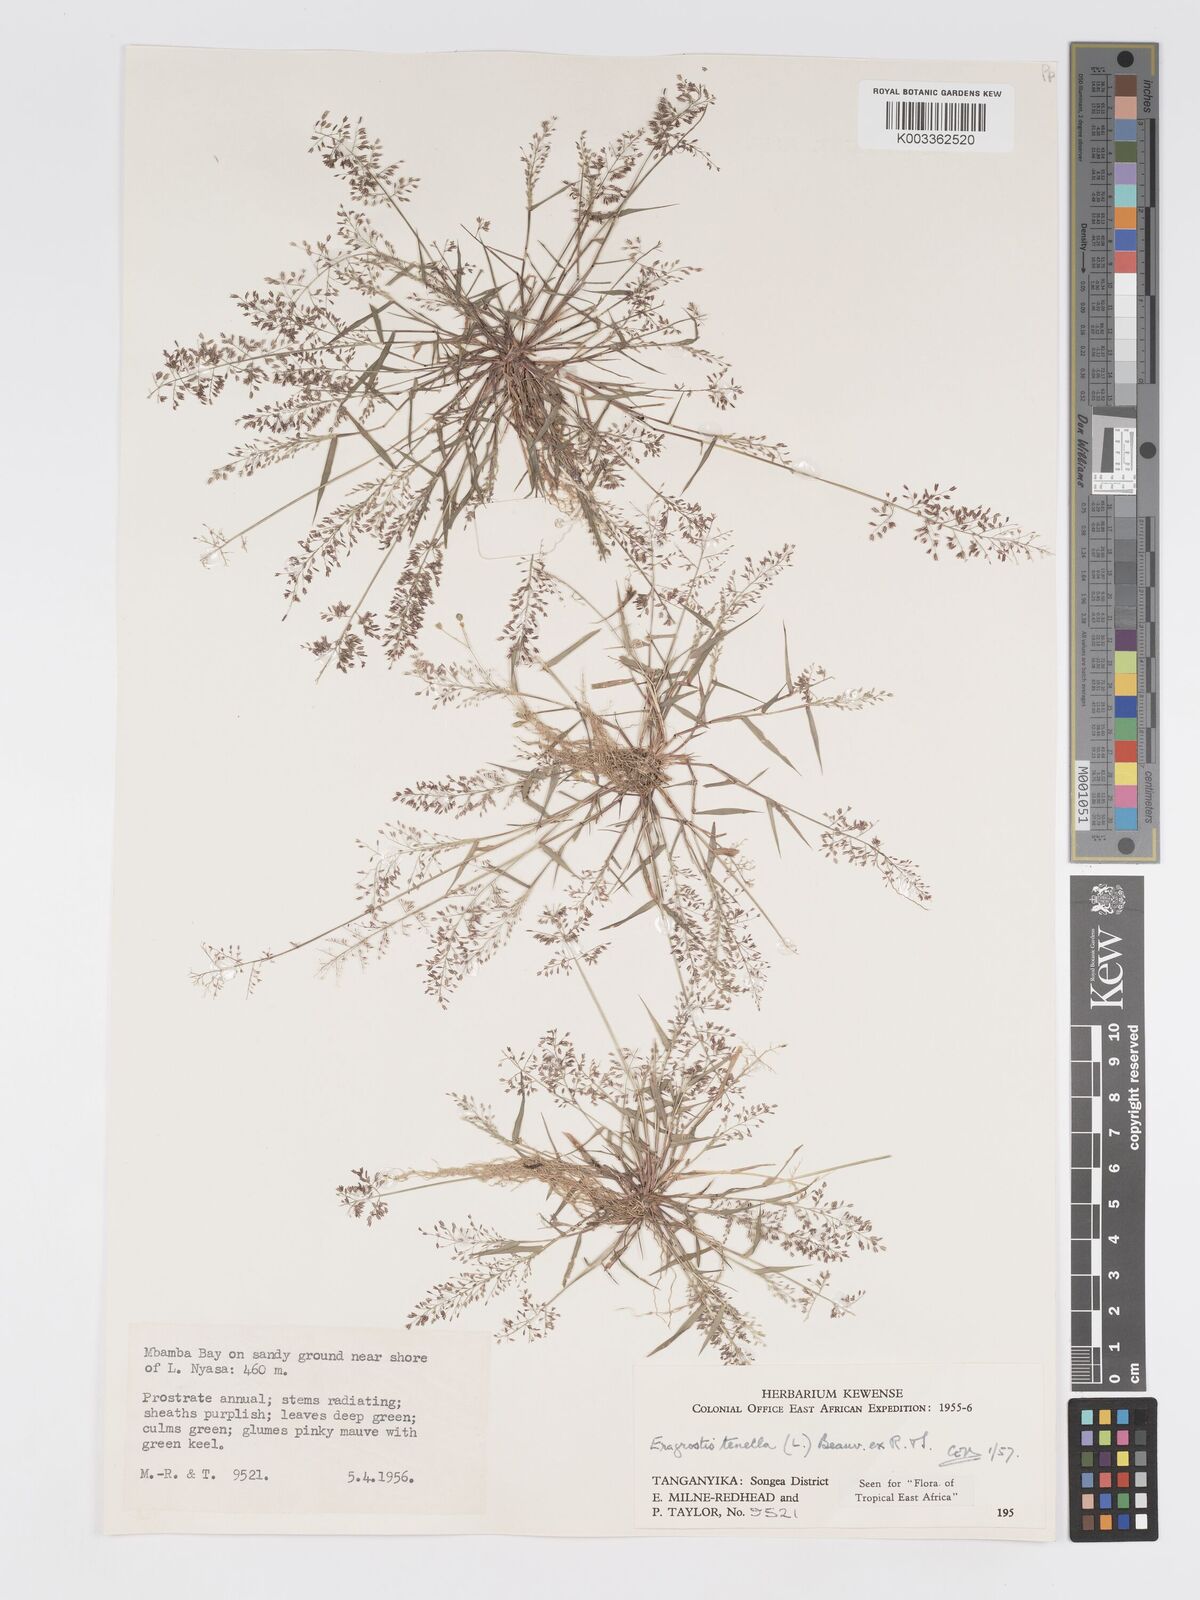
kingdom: Plantae
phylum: Tracheophyta
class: Liliopsida
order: Poales
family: Poaceae
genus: Eragrostis
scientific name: Eragrostis tenella
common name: Japanese lovegrass
